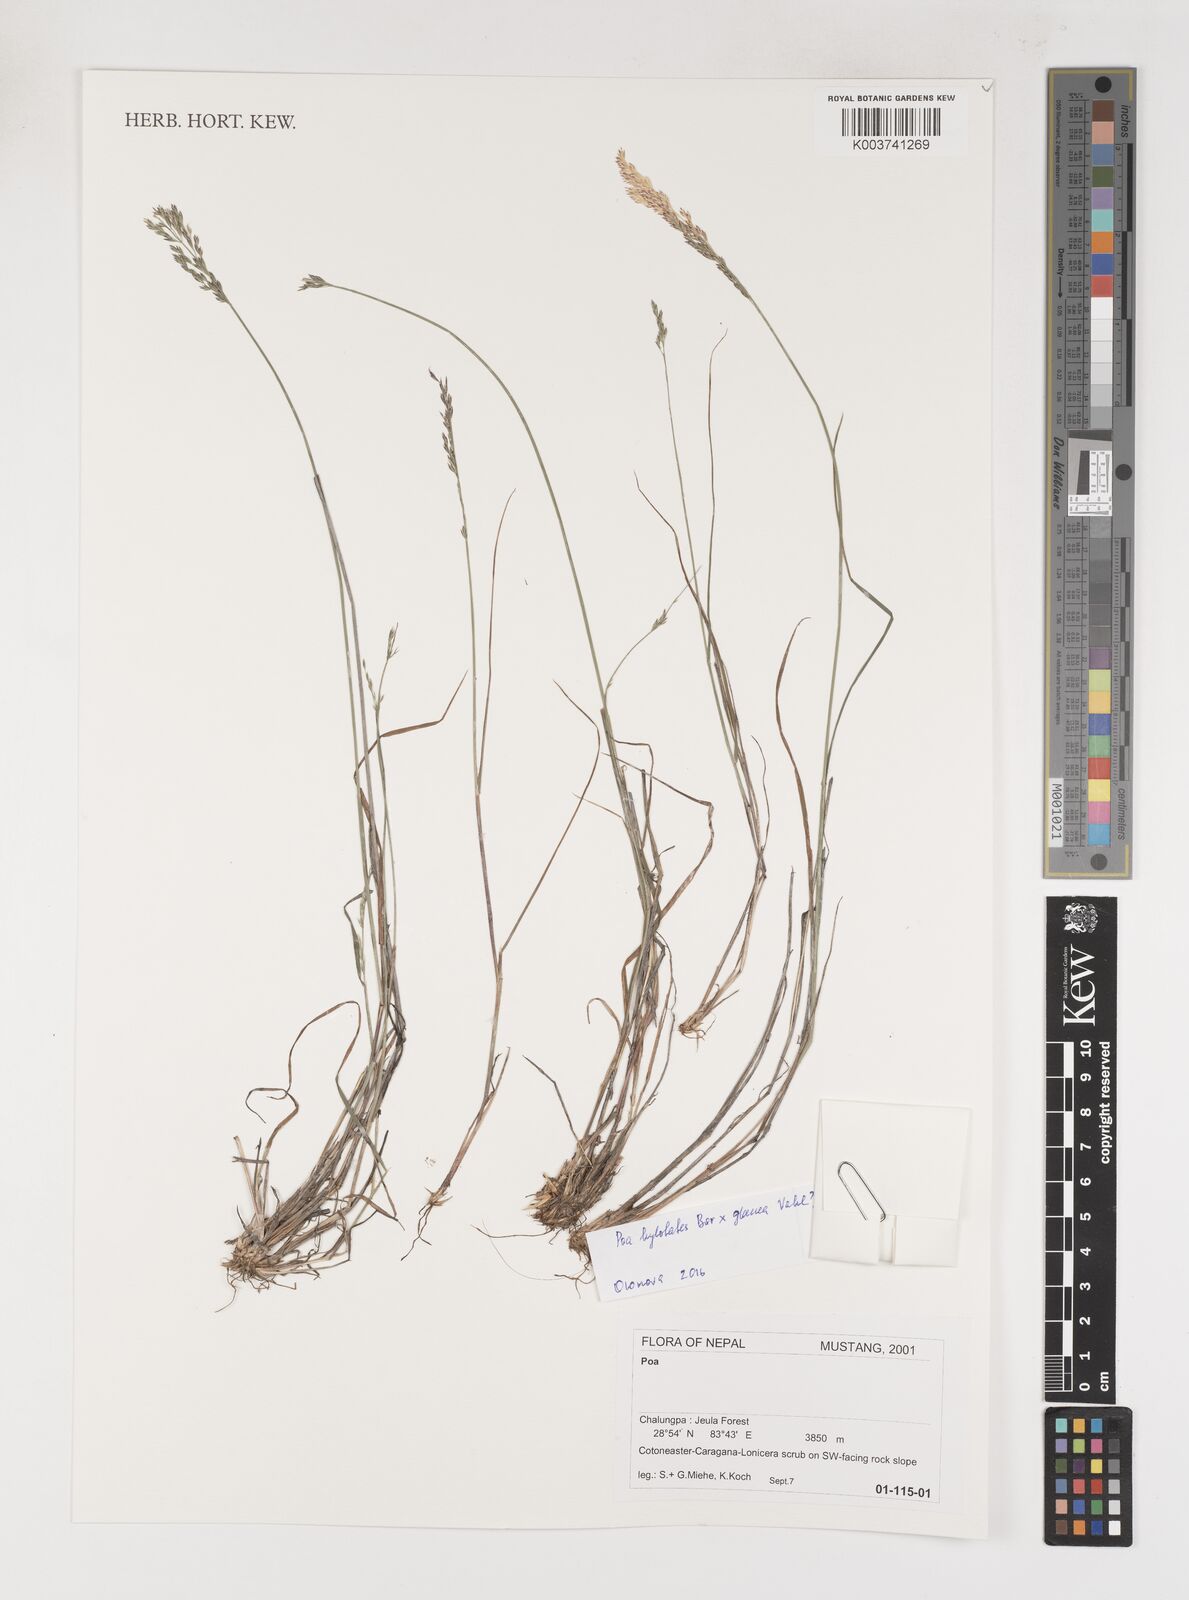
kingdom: Plantae
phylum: Tracheophyta
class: Liliopsida
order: Poales
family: Poaceae
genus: Poa
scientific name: Poa
